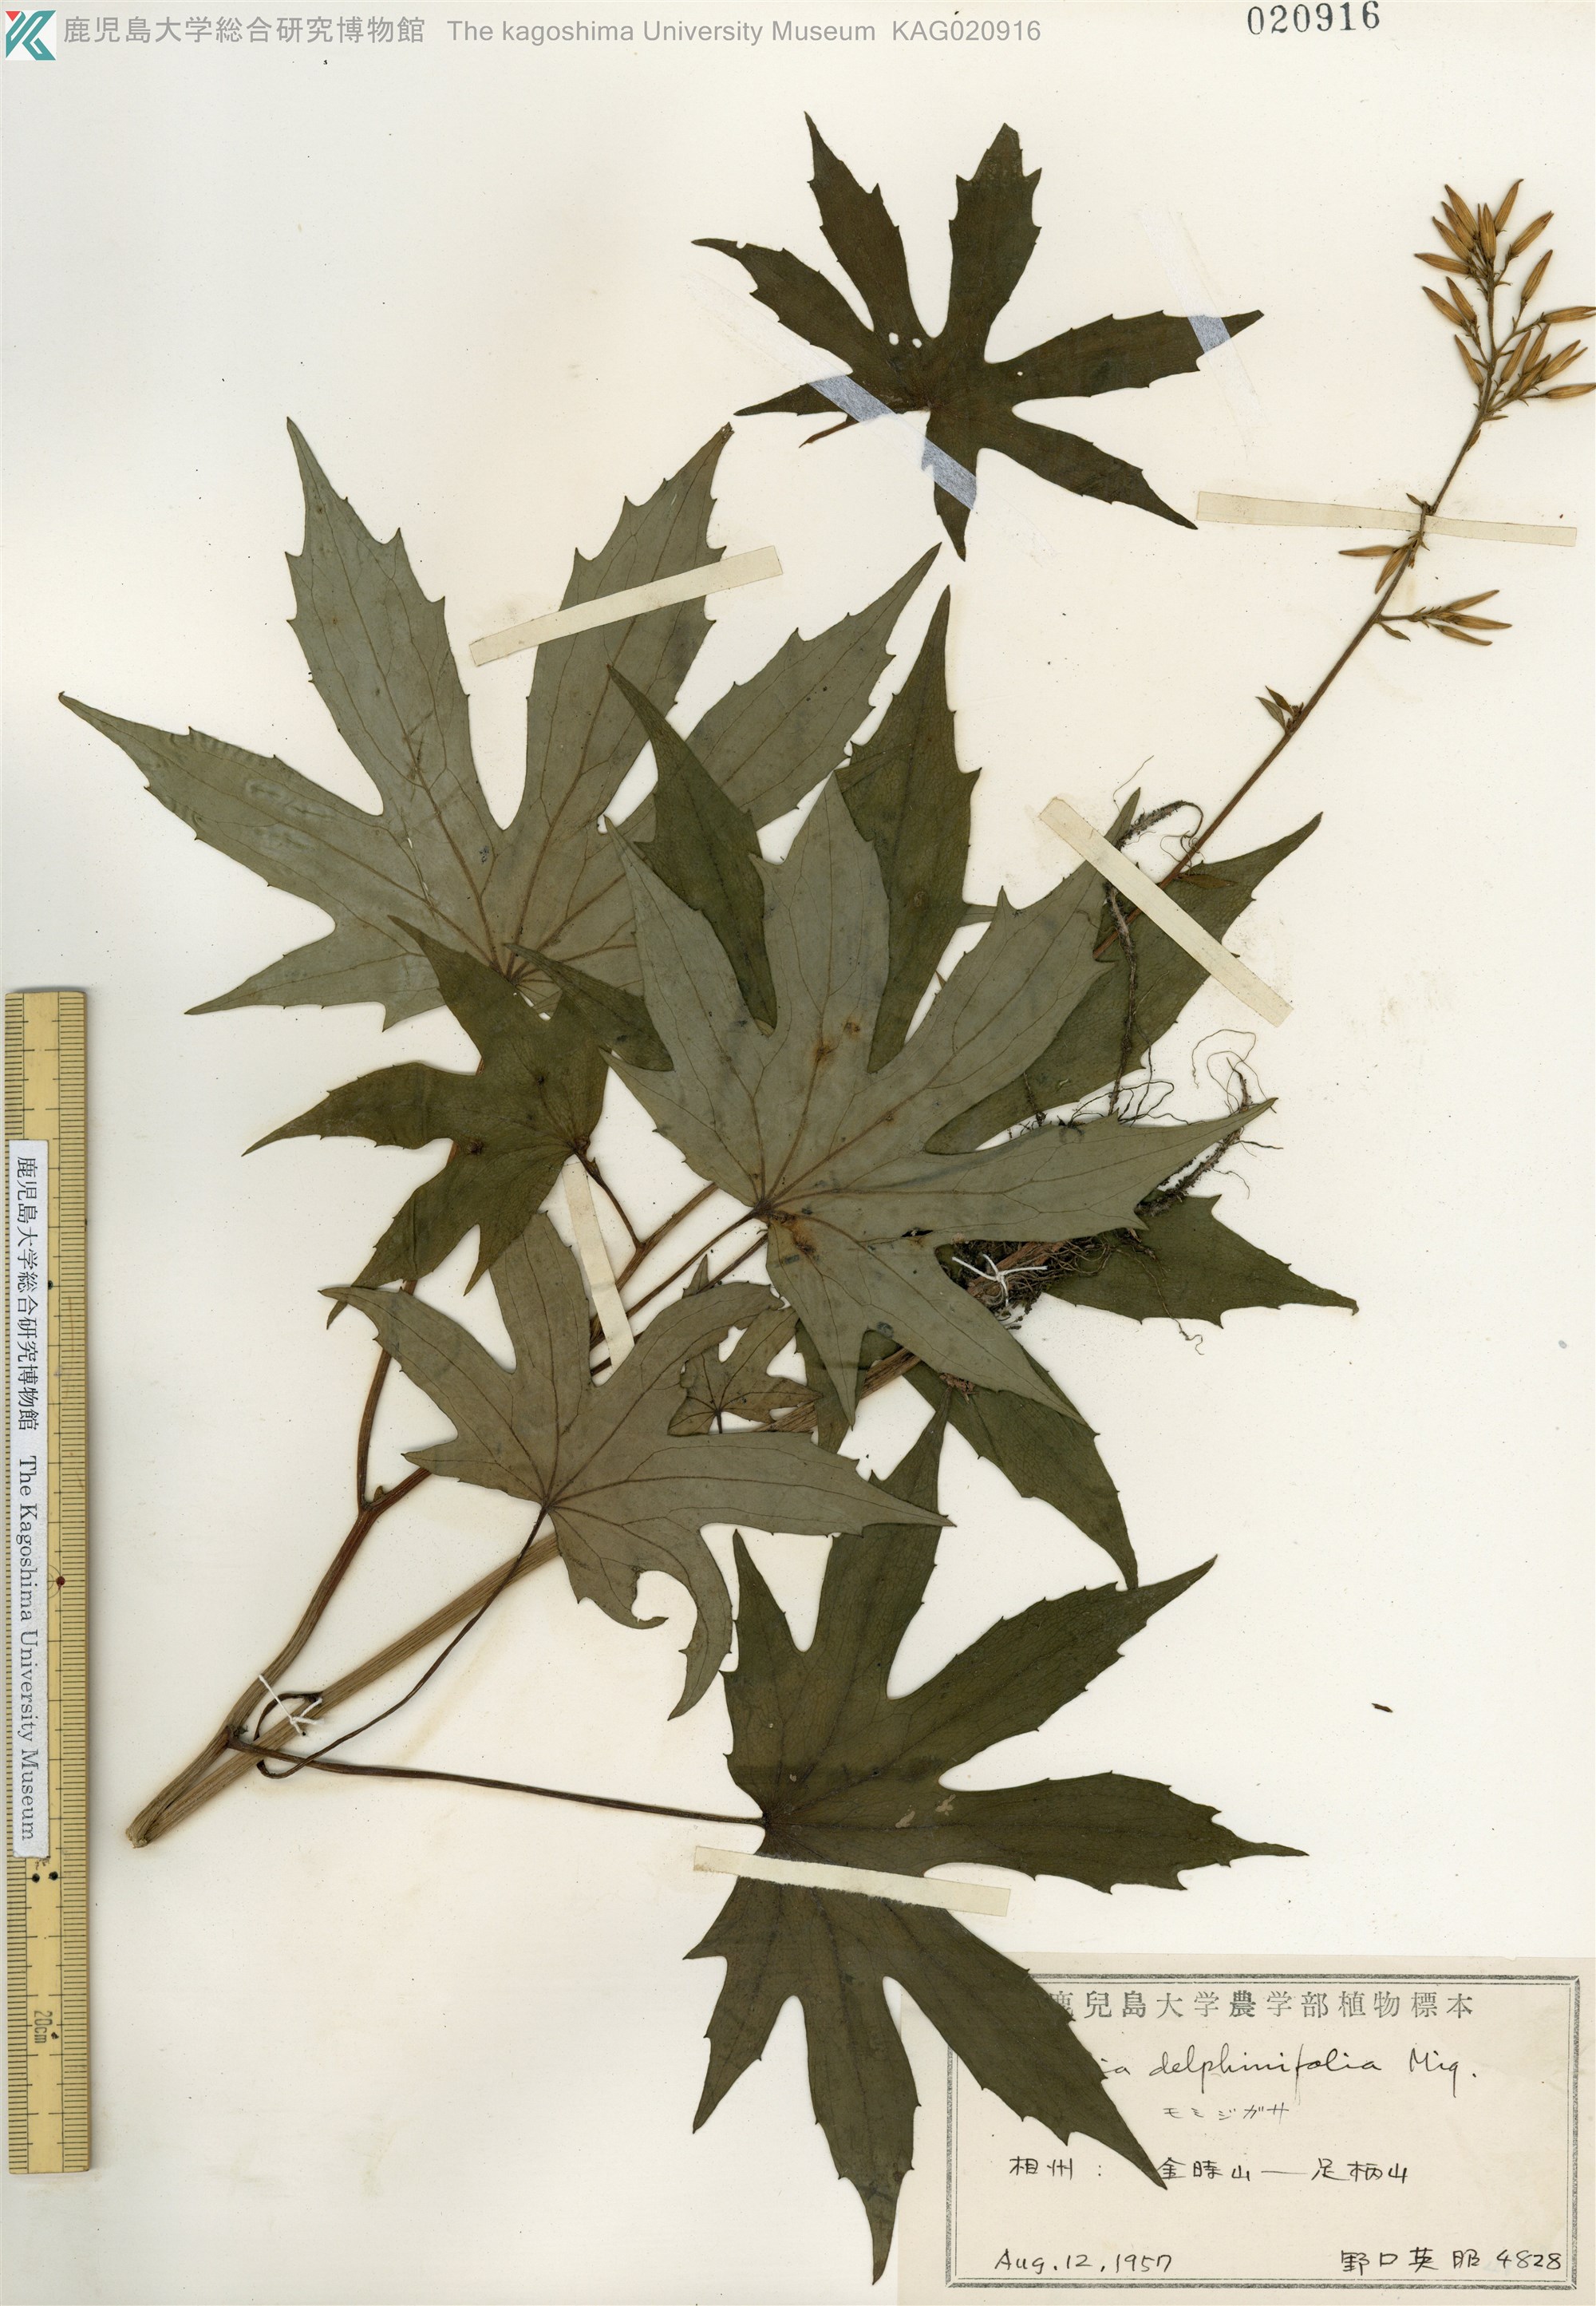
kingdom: Plantae
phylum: Tracheophyta
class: Magnoliopsida
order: Asterales
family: Asteraceae
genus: Japonicalia
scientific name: Japonicalia delphiniifolia
